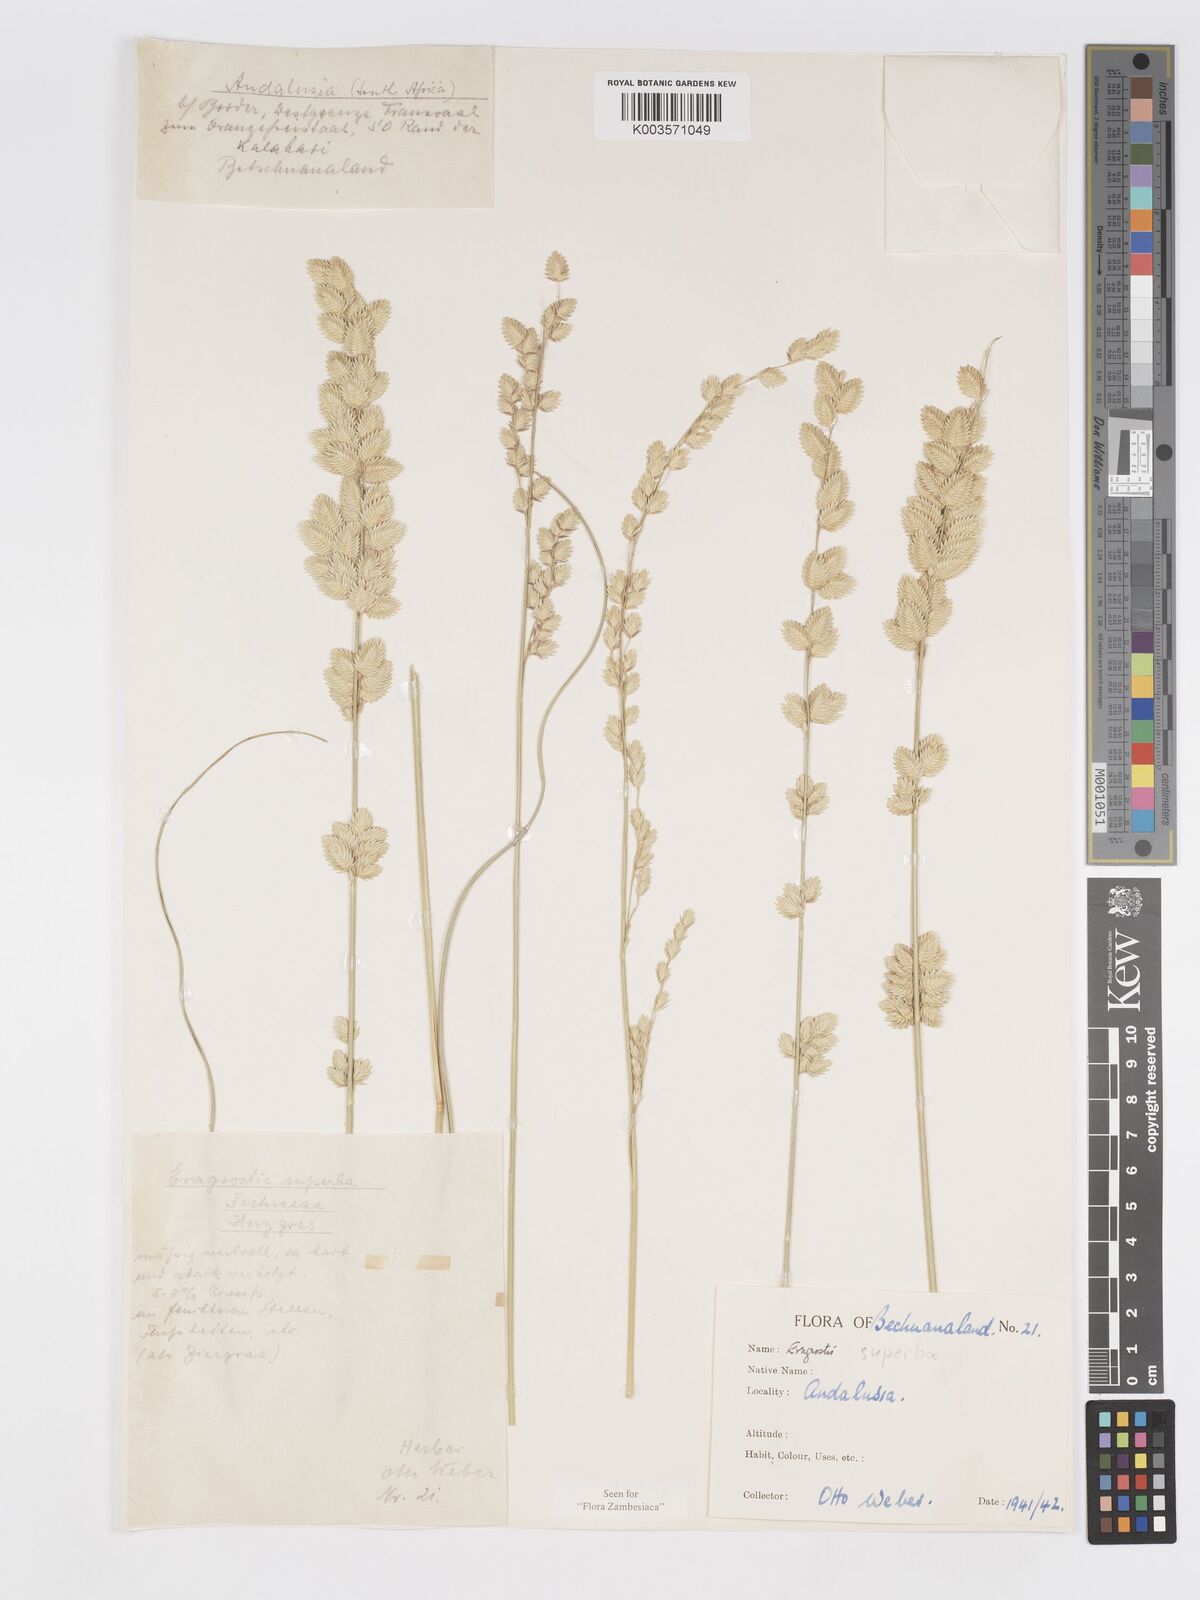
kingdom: Plantae
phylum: Tracheophyta
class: Liliopsida
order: Poales
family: Poaceae
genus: Eragrostis
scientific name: Eragrostis superba
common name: Wilman lovegrass
